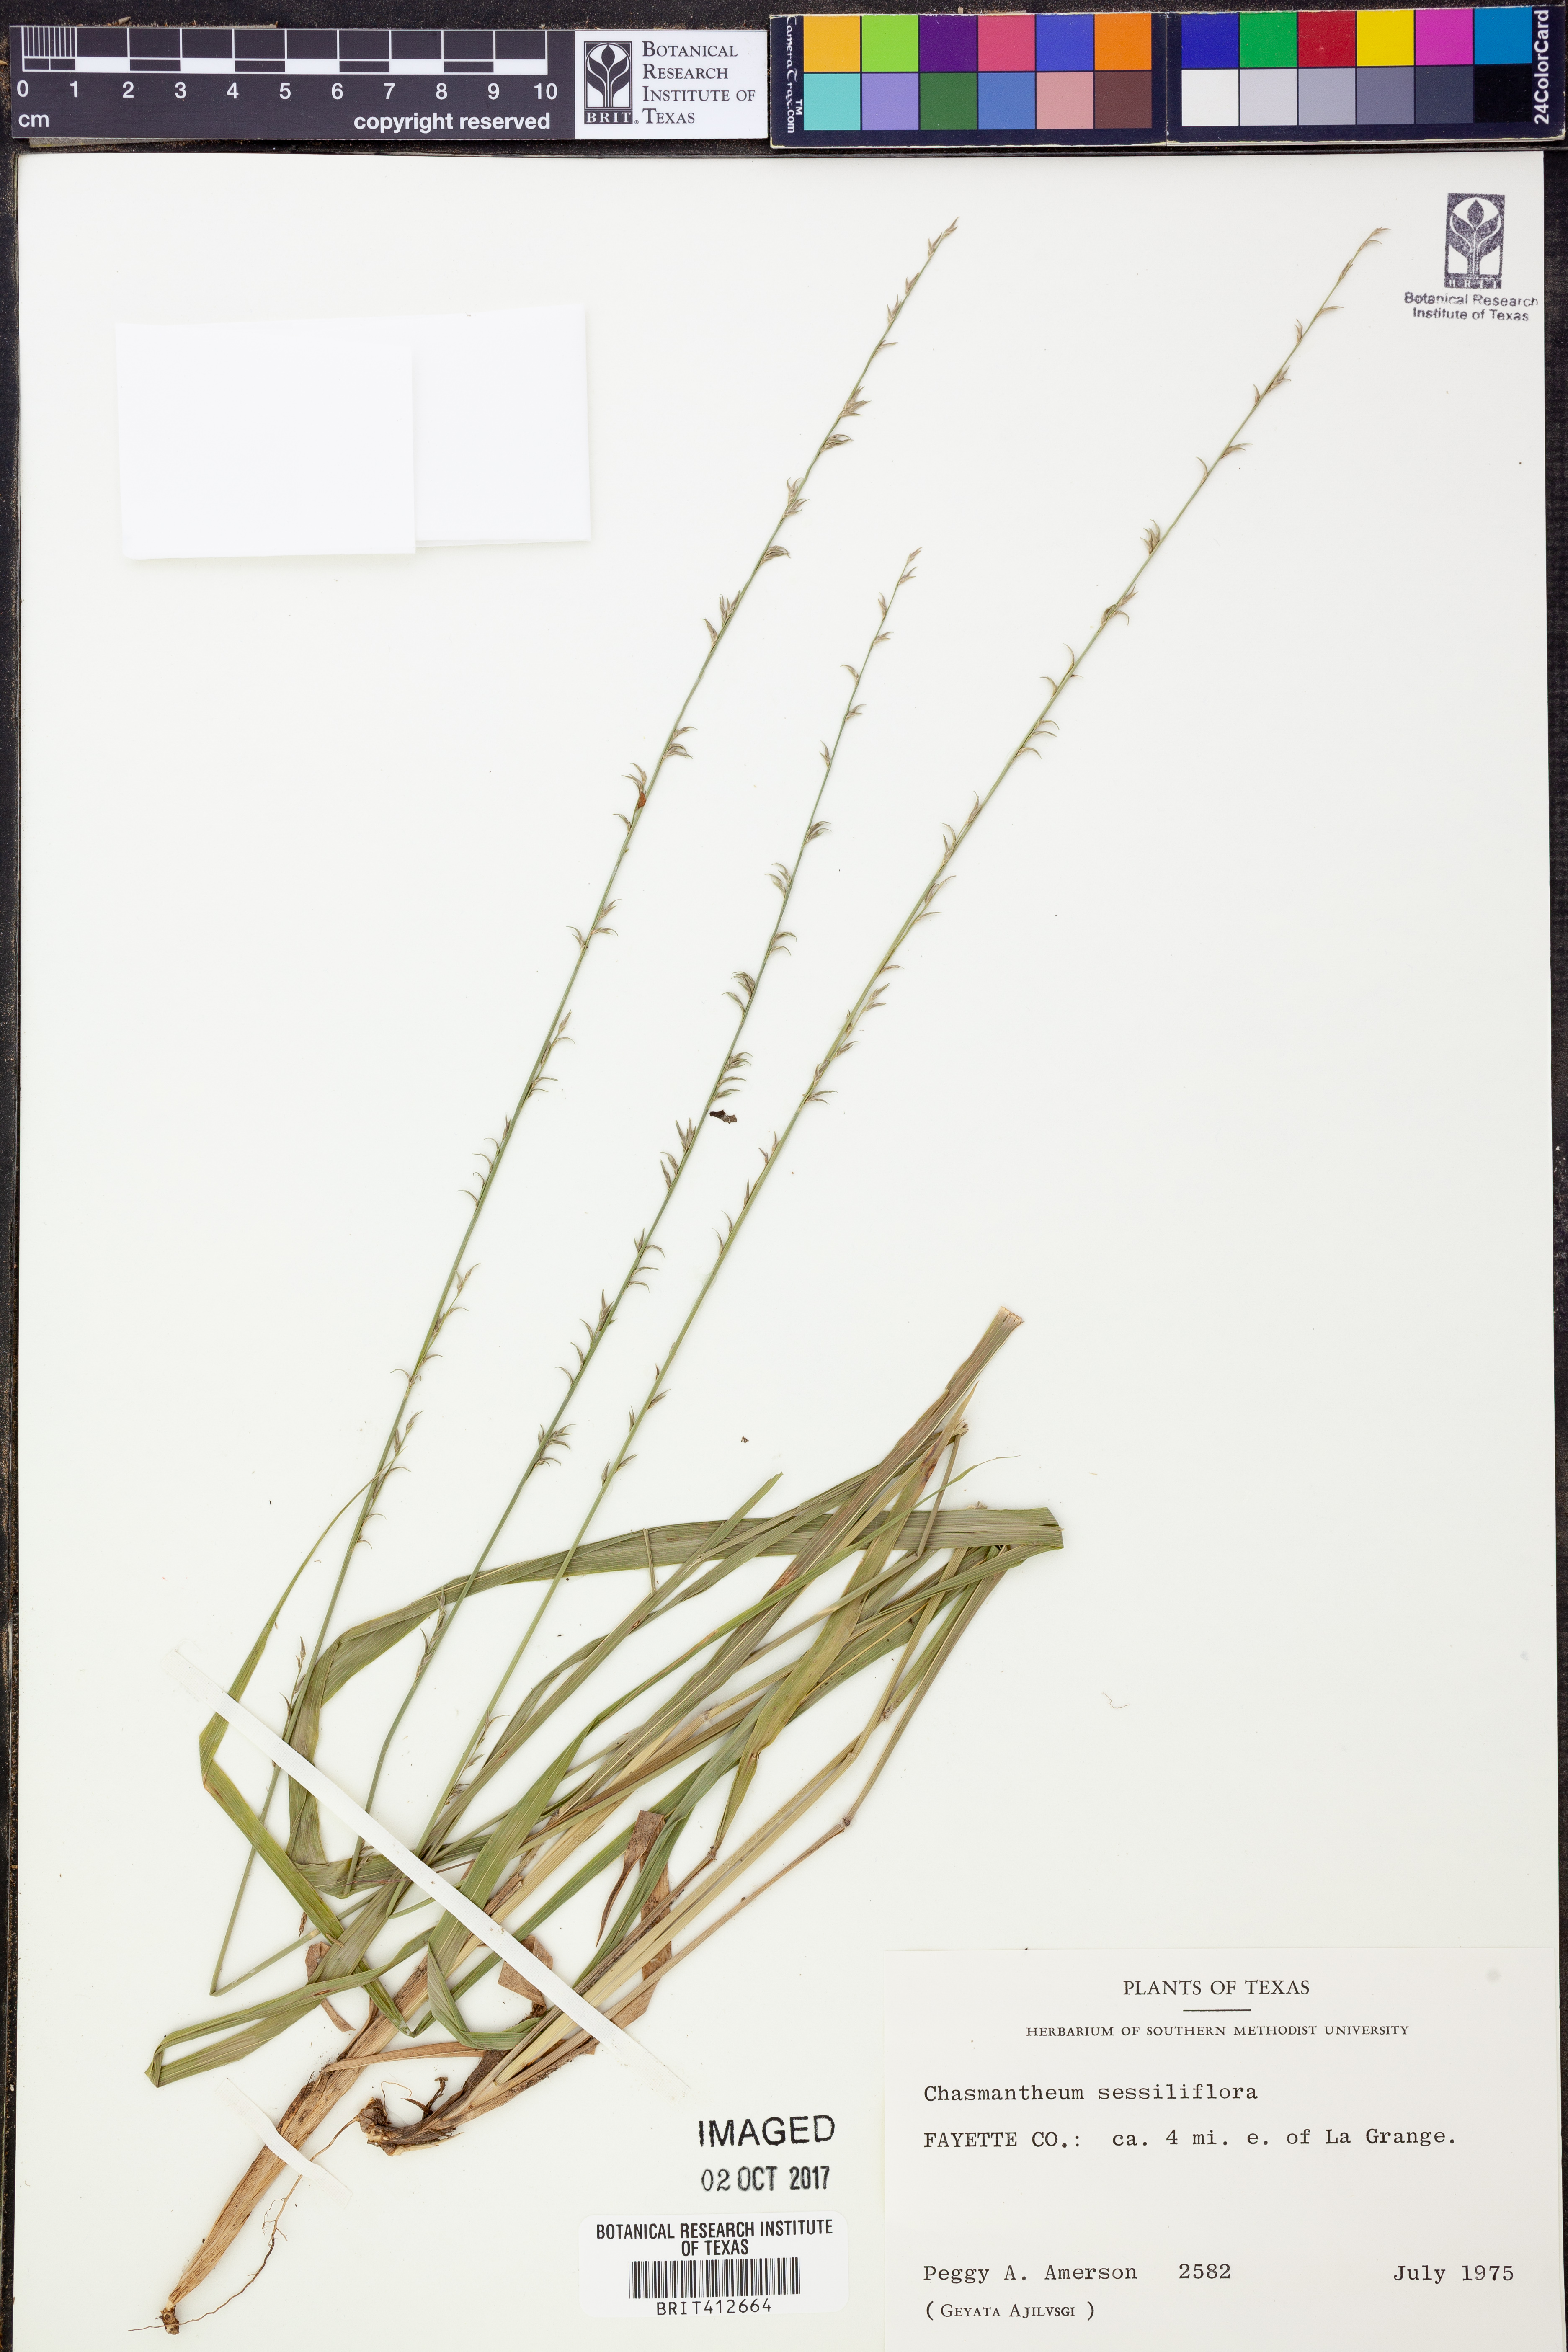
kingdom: Plantae
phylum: Tracheophyta
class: Liliopsida
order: Poales
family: Poaceae
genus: Chasmanthium
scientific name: Chasmanthium laxum
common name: Slender chasmanthium
